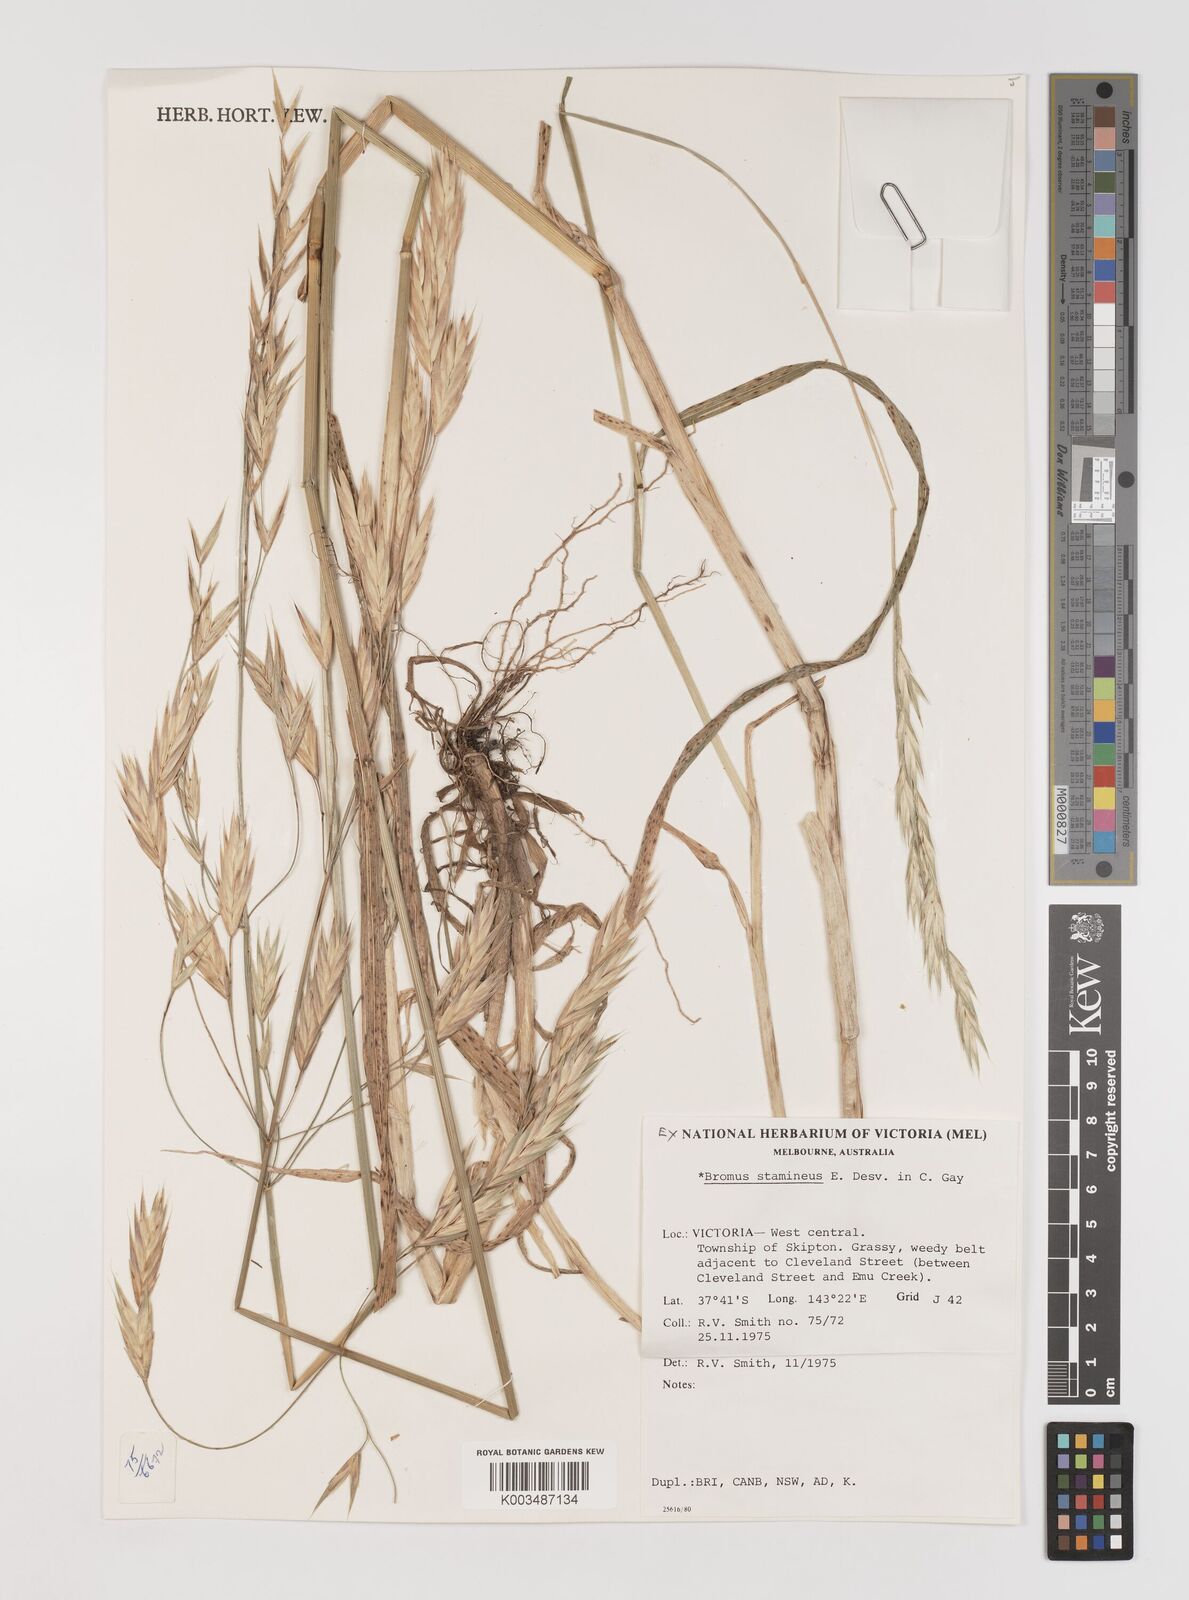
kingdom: Plantae
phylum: Tracheophyta
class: Liliopsida
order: Poales
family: Poaceae
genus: Bromus
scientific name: Bromus cebadilla
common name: Southern brome
